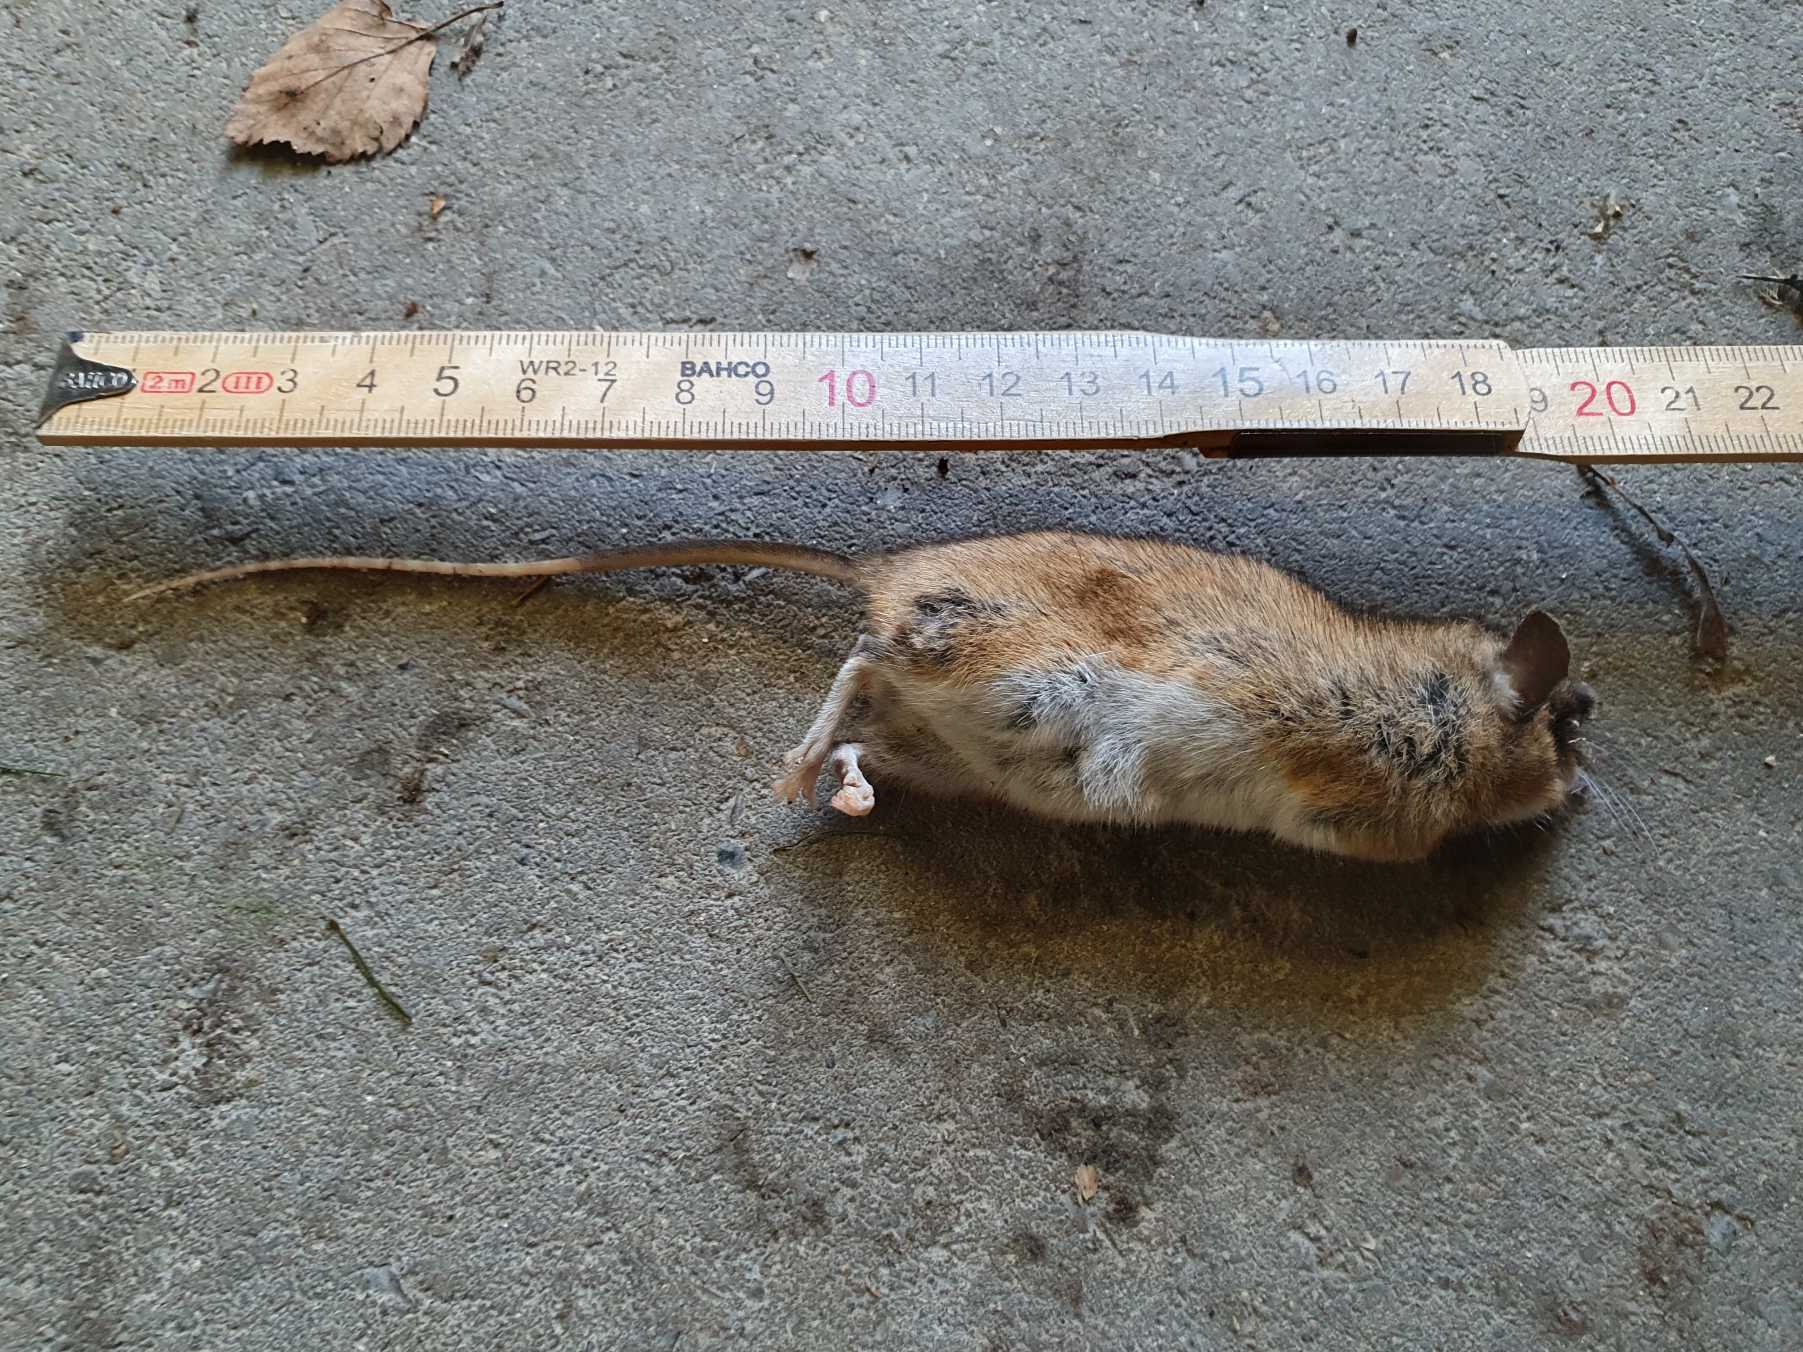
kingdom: Animalia
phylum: Chordata
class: Mammalia
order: Rodentia
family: Muridae
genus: Apodemus
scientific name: Apodemus sylvaticus
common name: Skovmus
